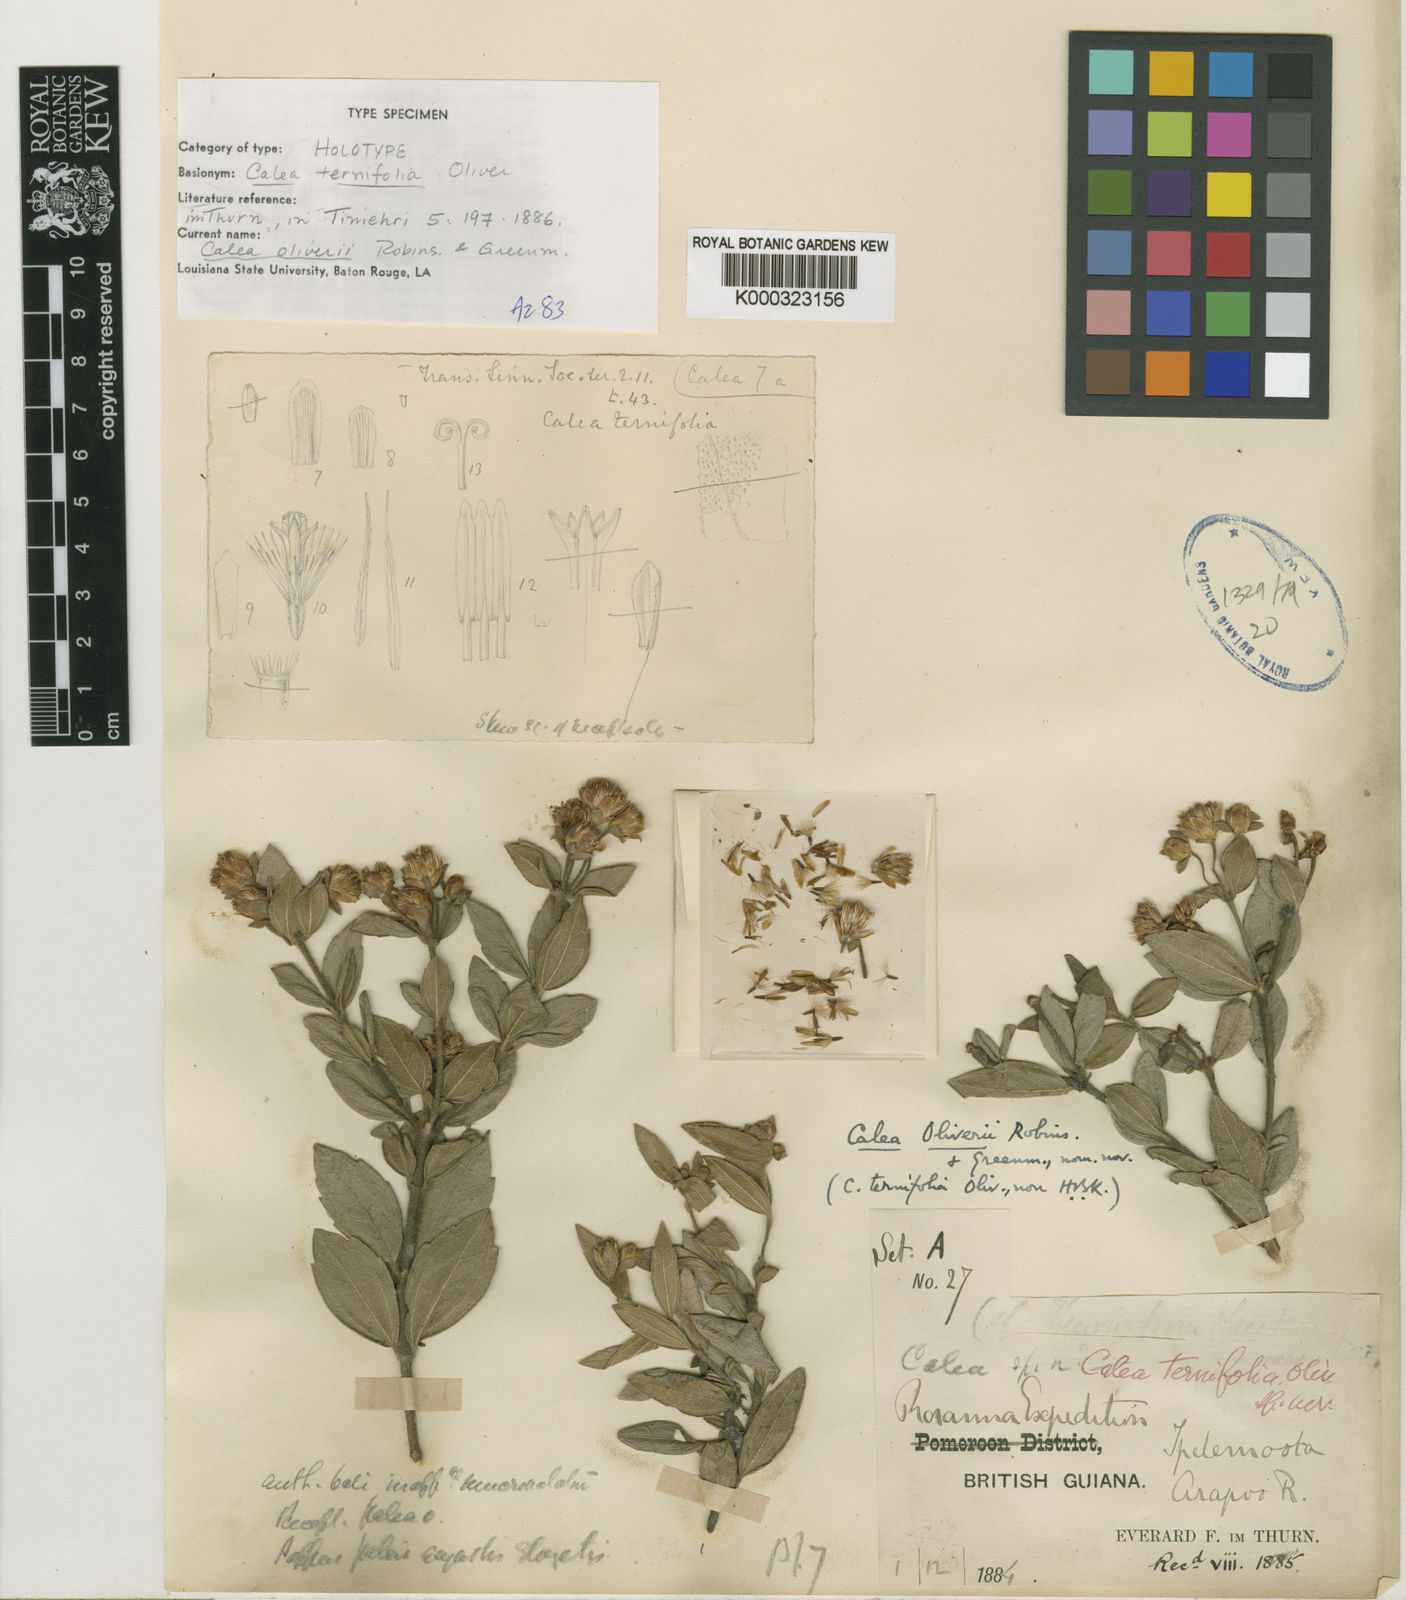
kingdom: Plantae
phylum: Tracheophyta
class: Magnoliopsida
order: Asterales
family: Asteraceae
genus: Calea
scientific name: Calea oliveri
